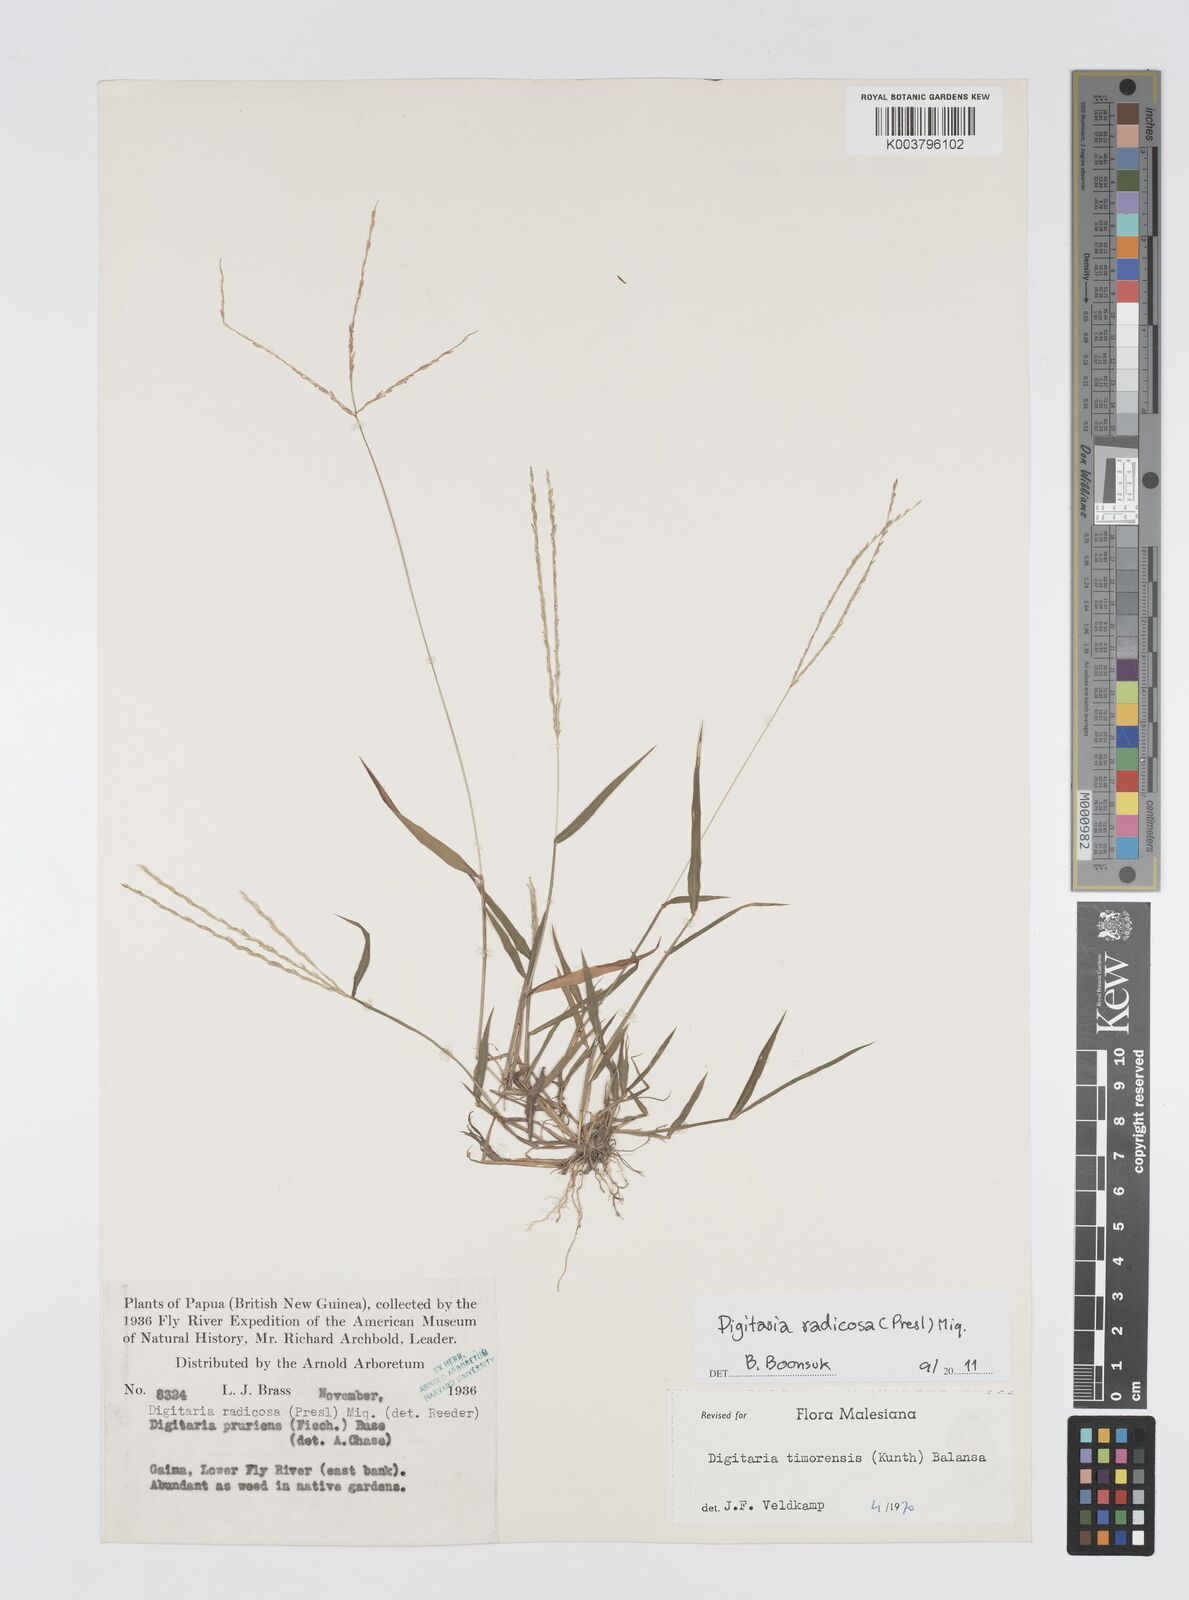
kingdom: Plantae
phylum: Tracheophyta
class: Liliopsida
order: Poales
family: Poaceae
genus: Digitaria
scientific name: Digitaria radicosa
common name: Trailing crabgrass
